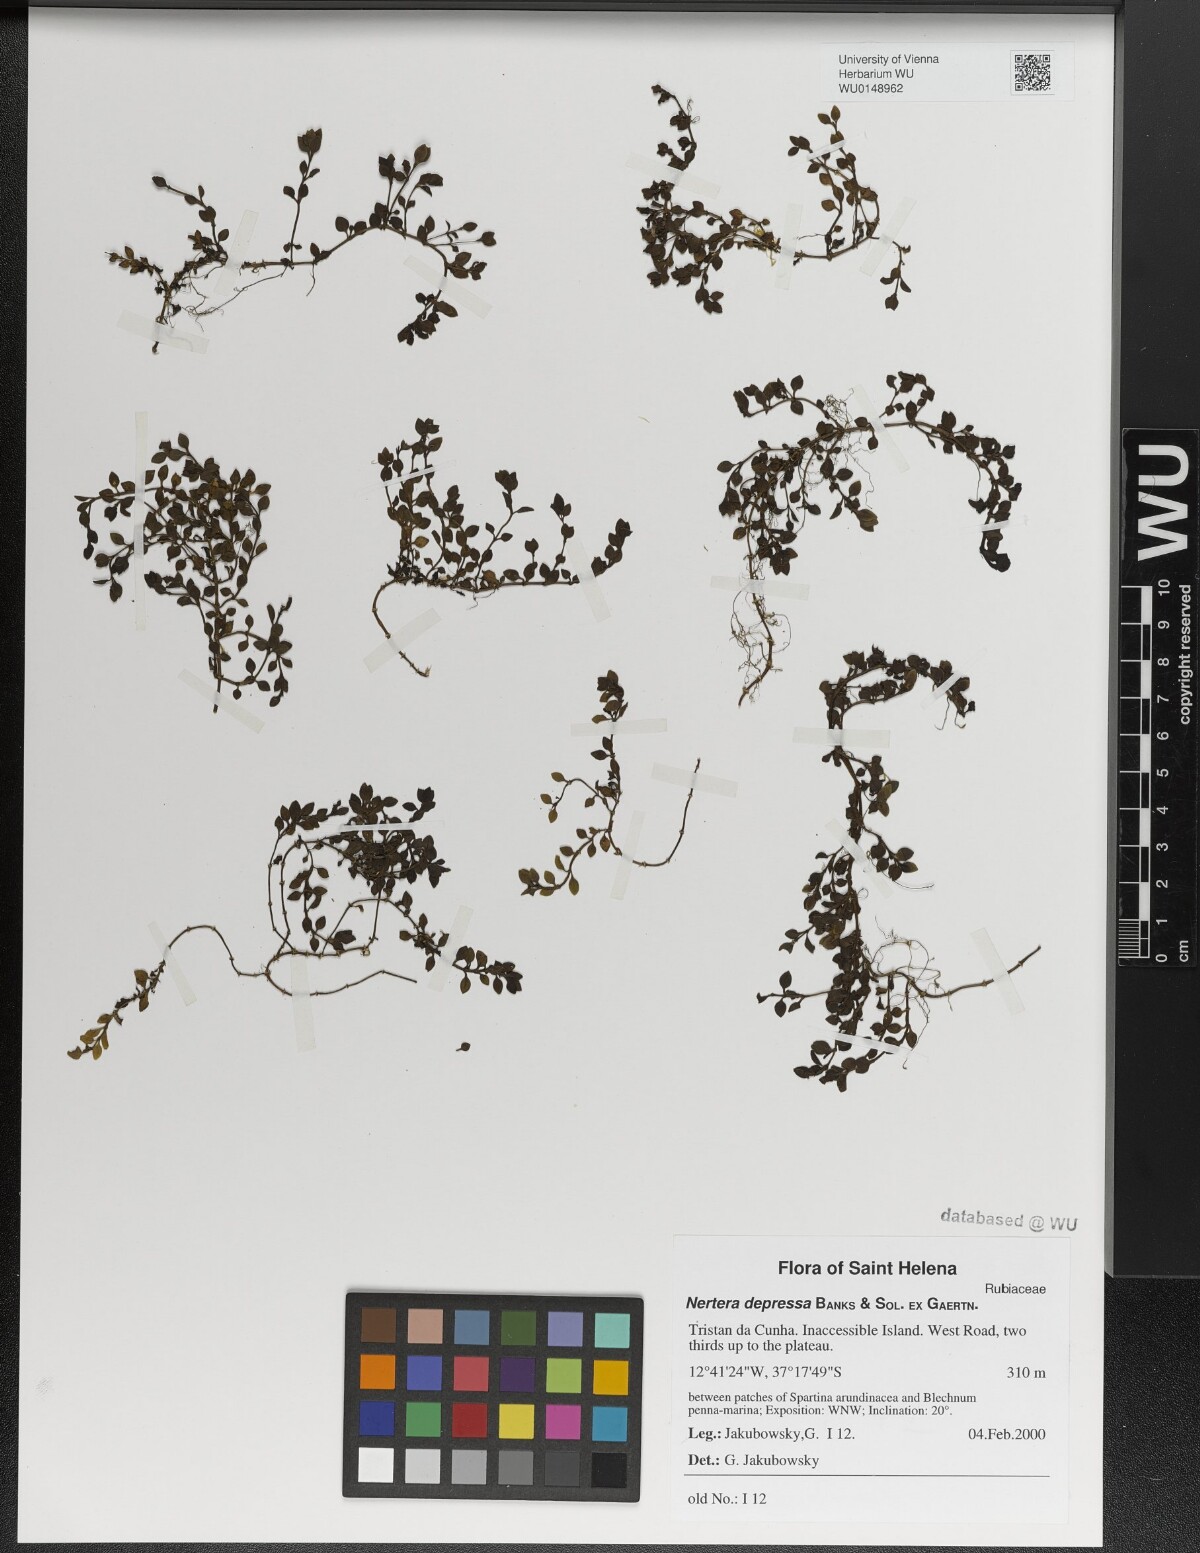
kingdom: Plantae
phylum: Tracheophyta
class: Magnoliopsida
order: Gentianales
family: Rubiaceae
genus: Nertera
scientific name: Nertera granadensis
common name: Beadplant
